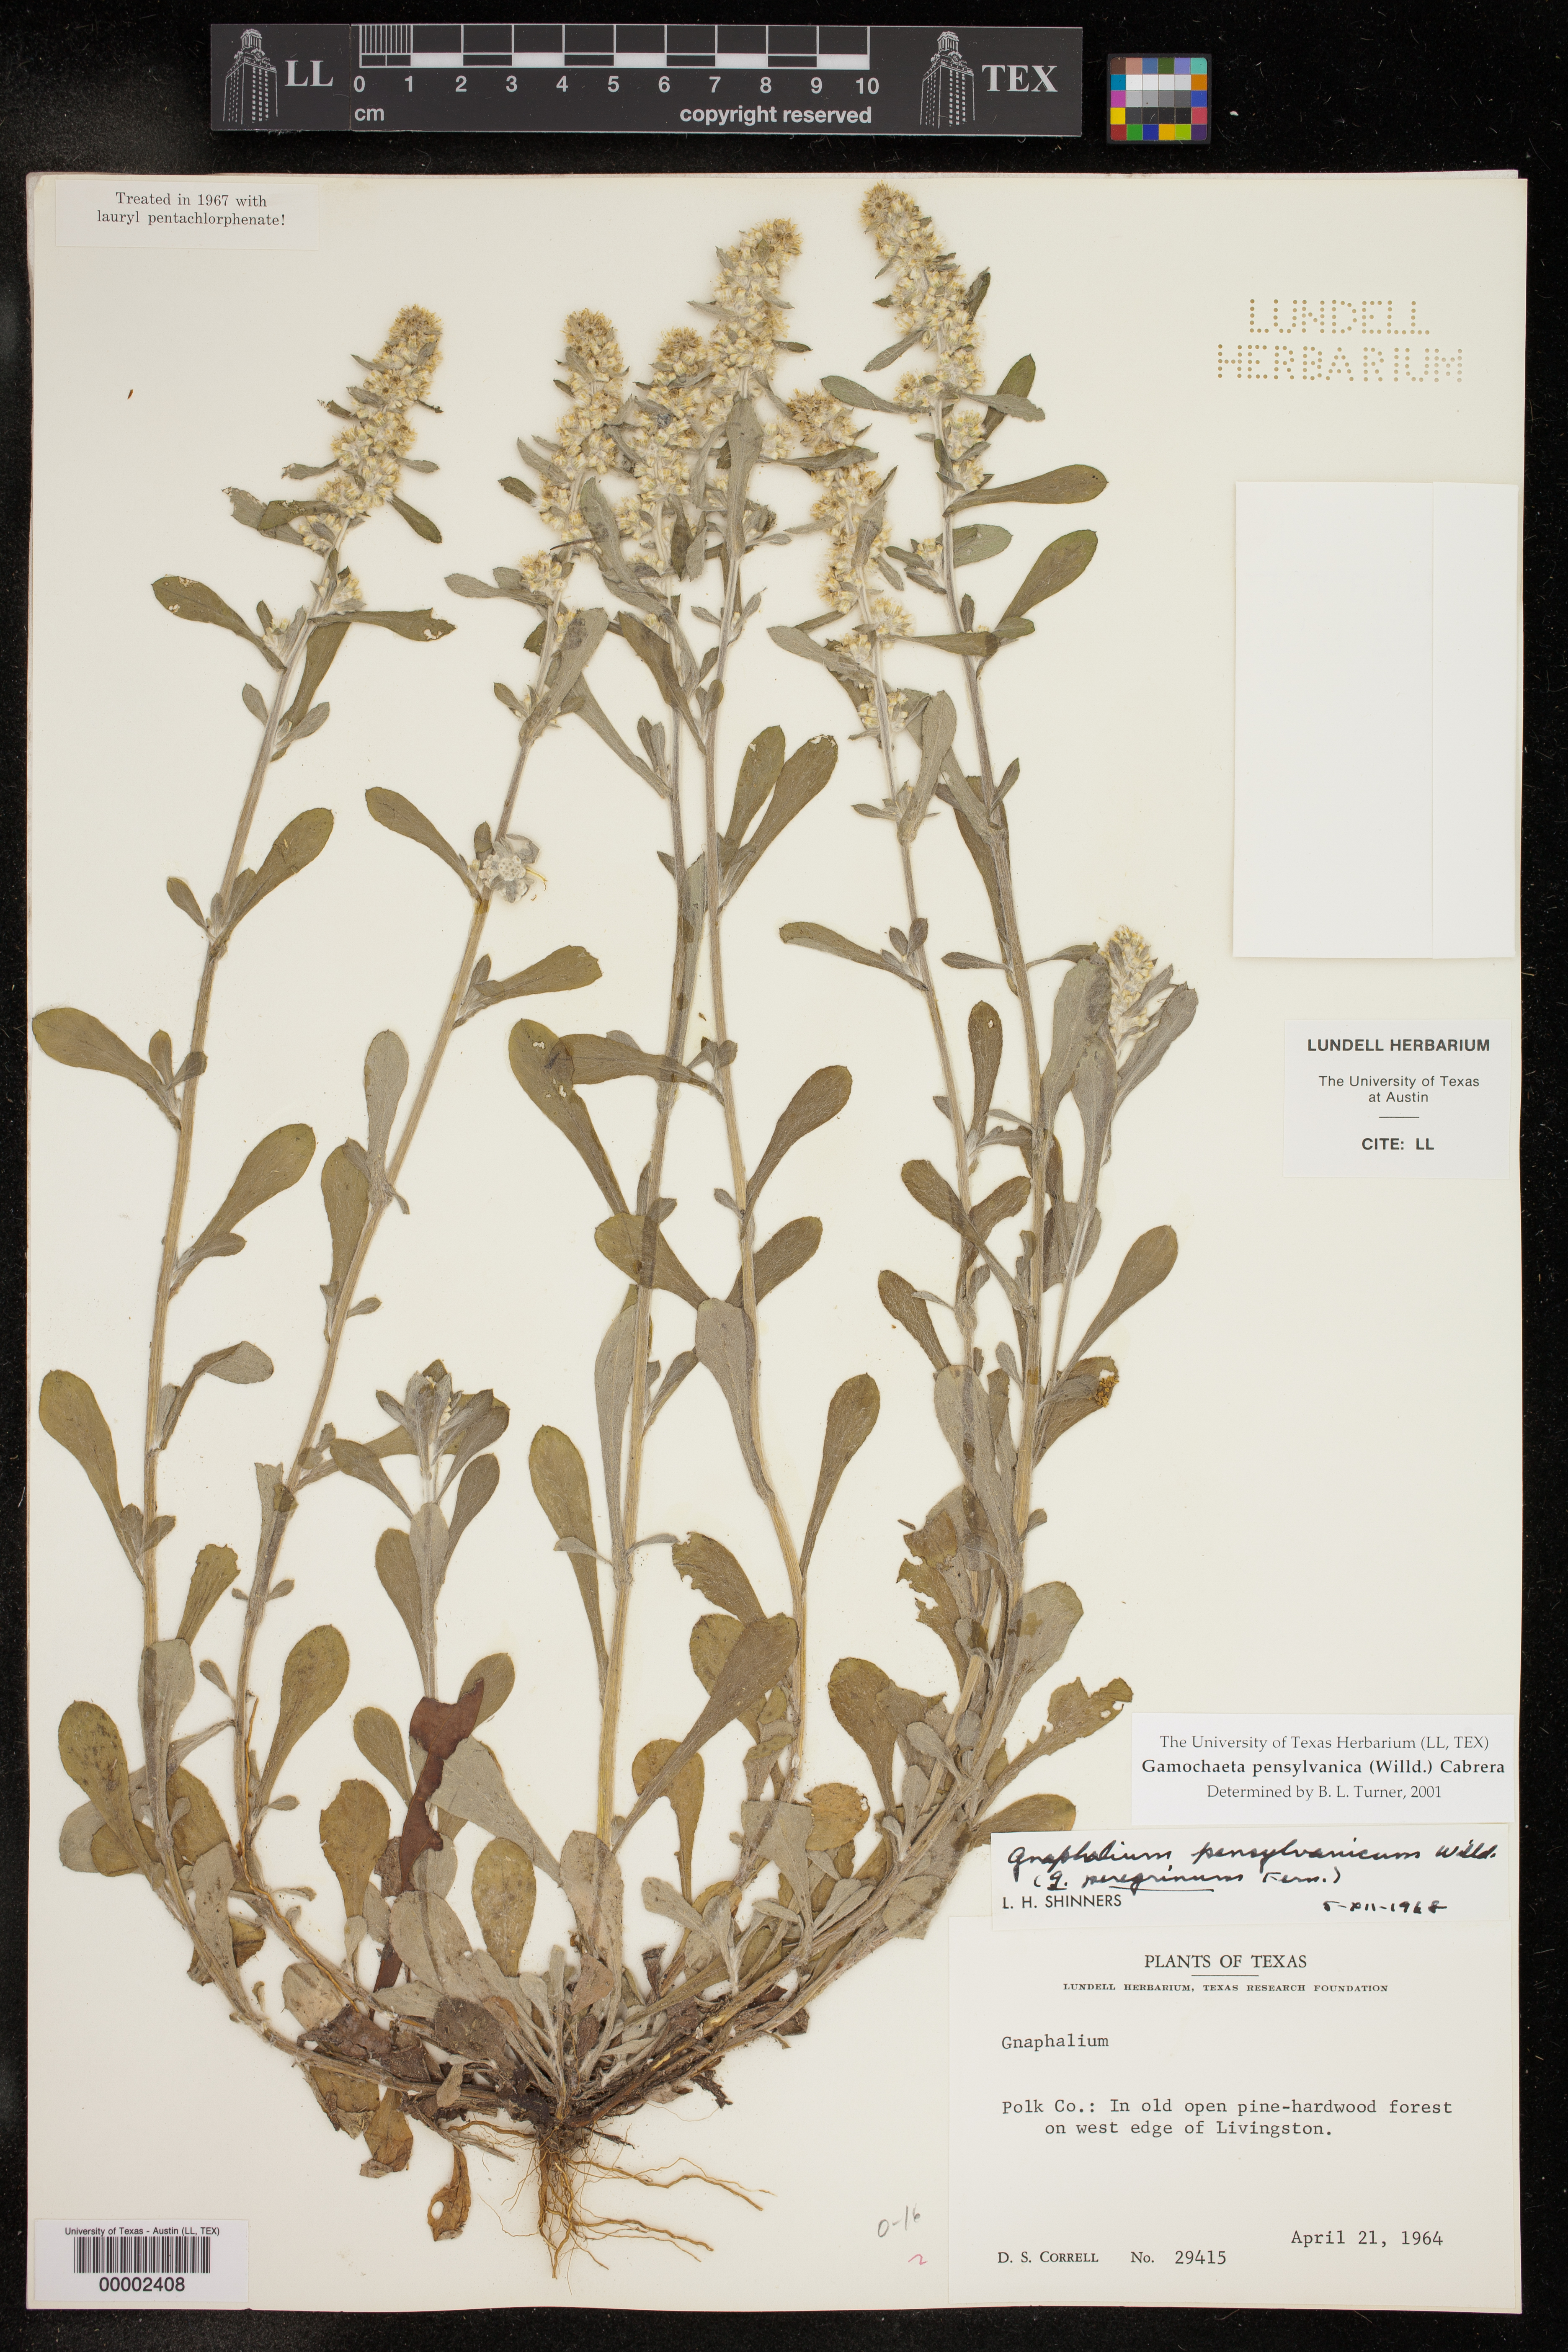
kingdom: Plantae
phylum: Tracheophyta
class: Magnoliopsida
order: Asterales
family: Asteraceae
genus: Gamochaeta
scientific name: Gamochaeta pensylvanica
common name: Pennsylvania everlasting
